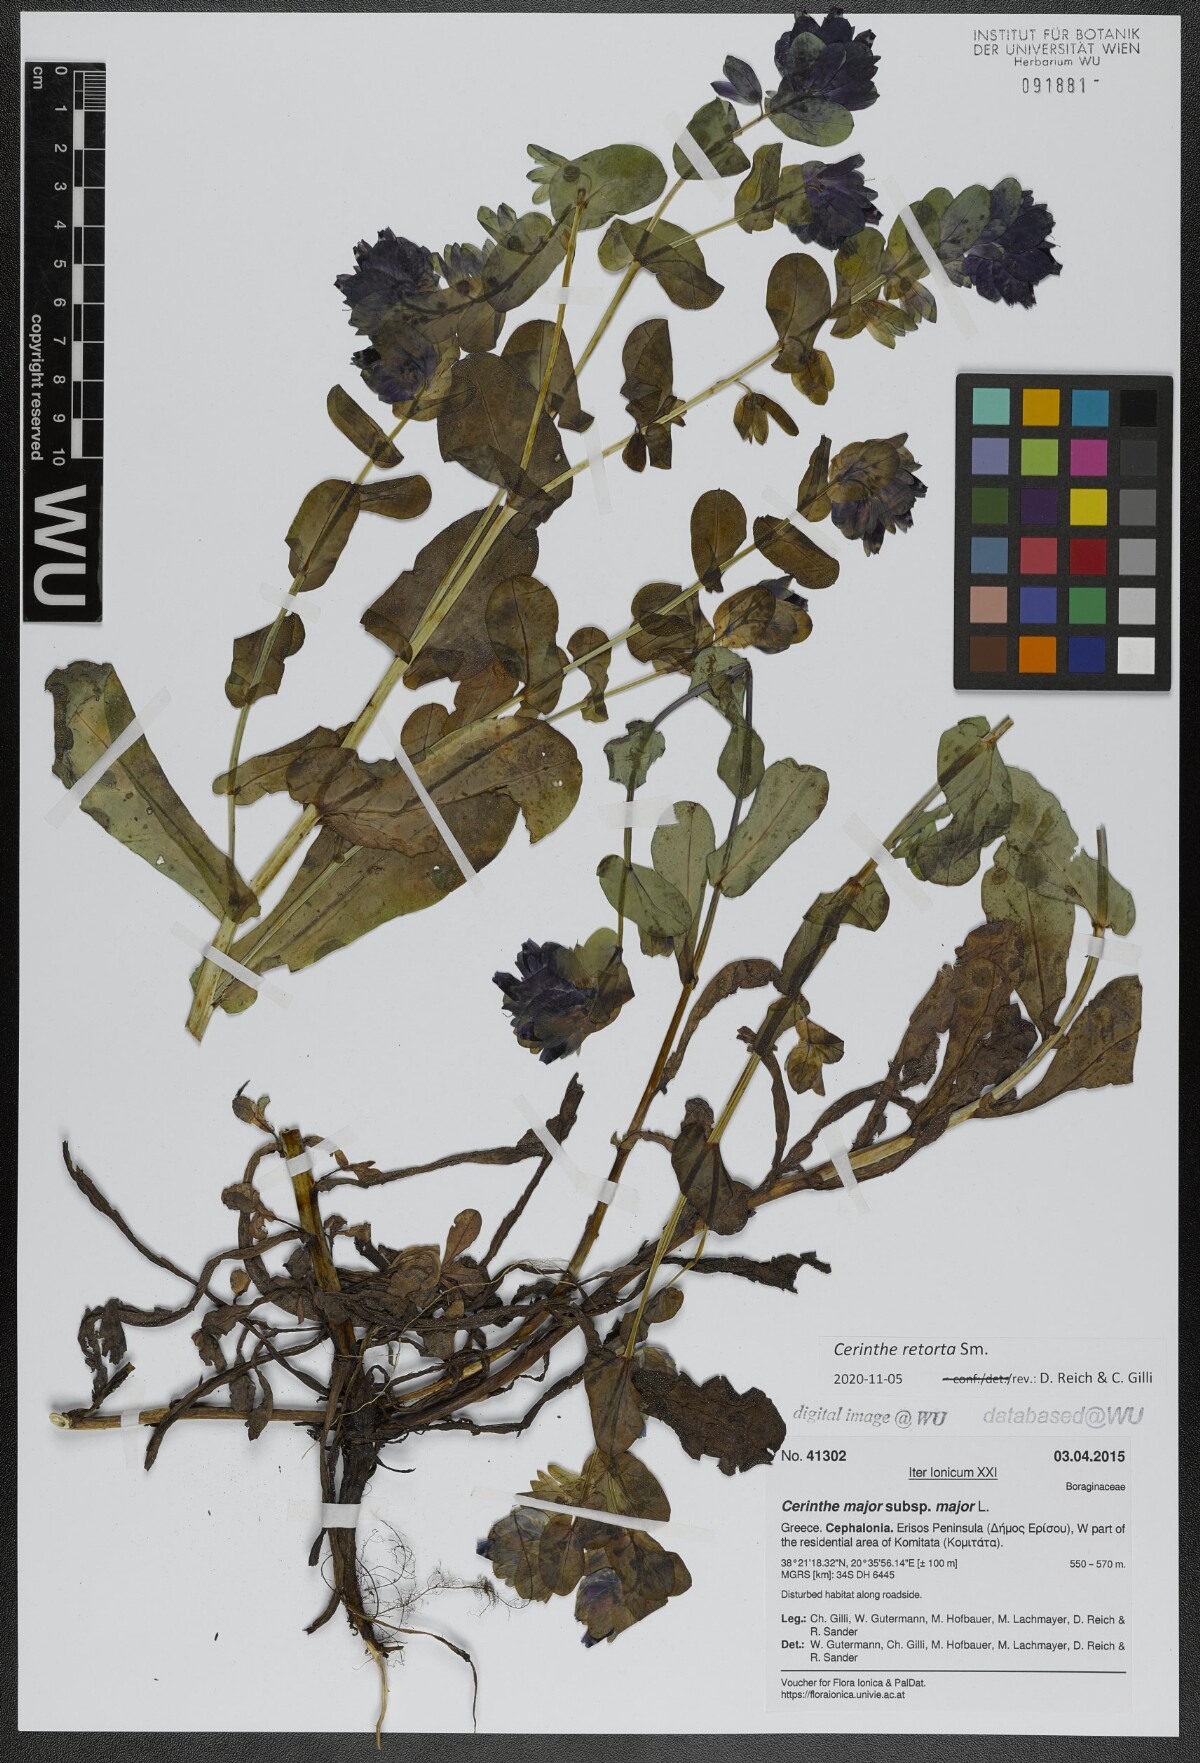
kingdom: Plantae
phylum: Tracheophyta
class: Magnoliopsida
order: Boraginales
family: Boraginaceae
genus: Cerinthe
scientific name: Cerinthe retorta
